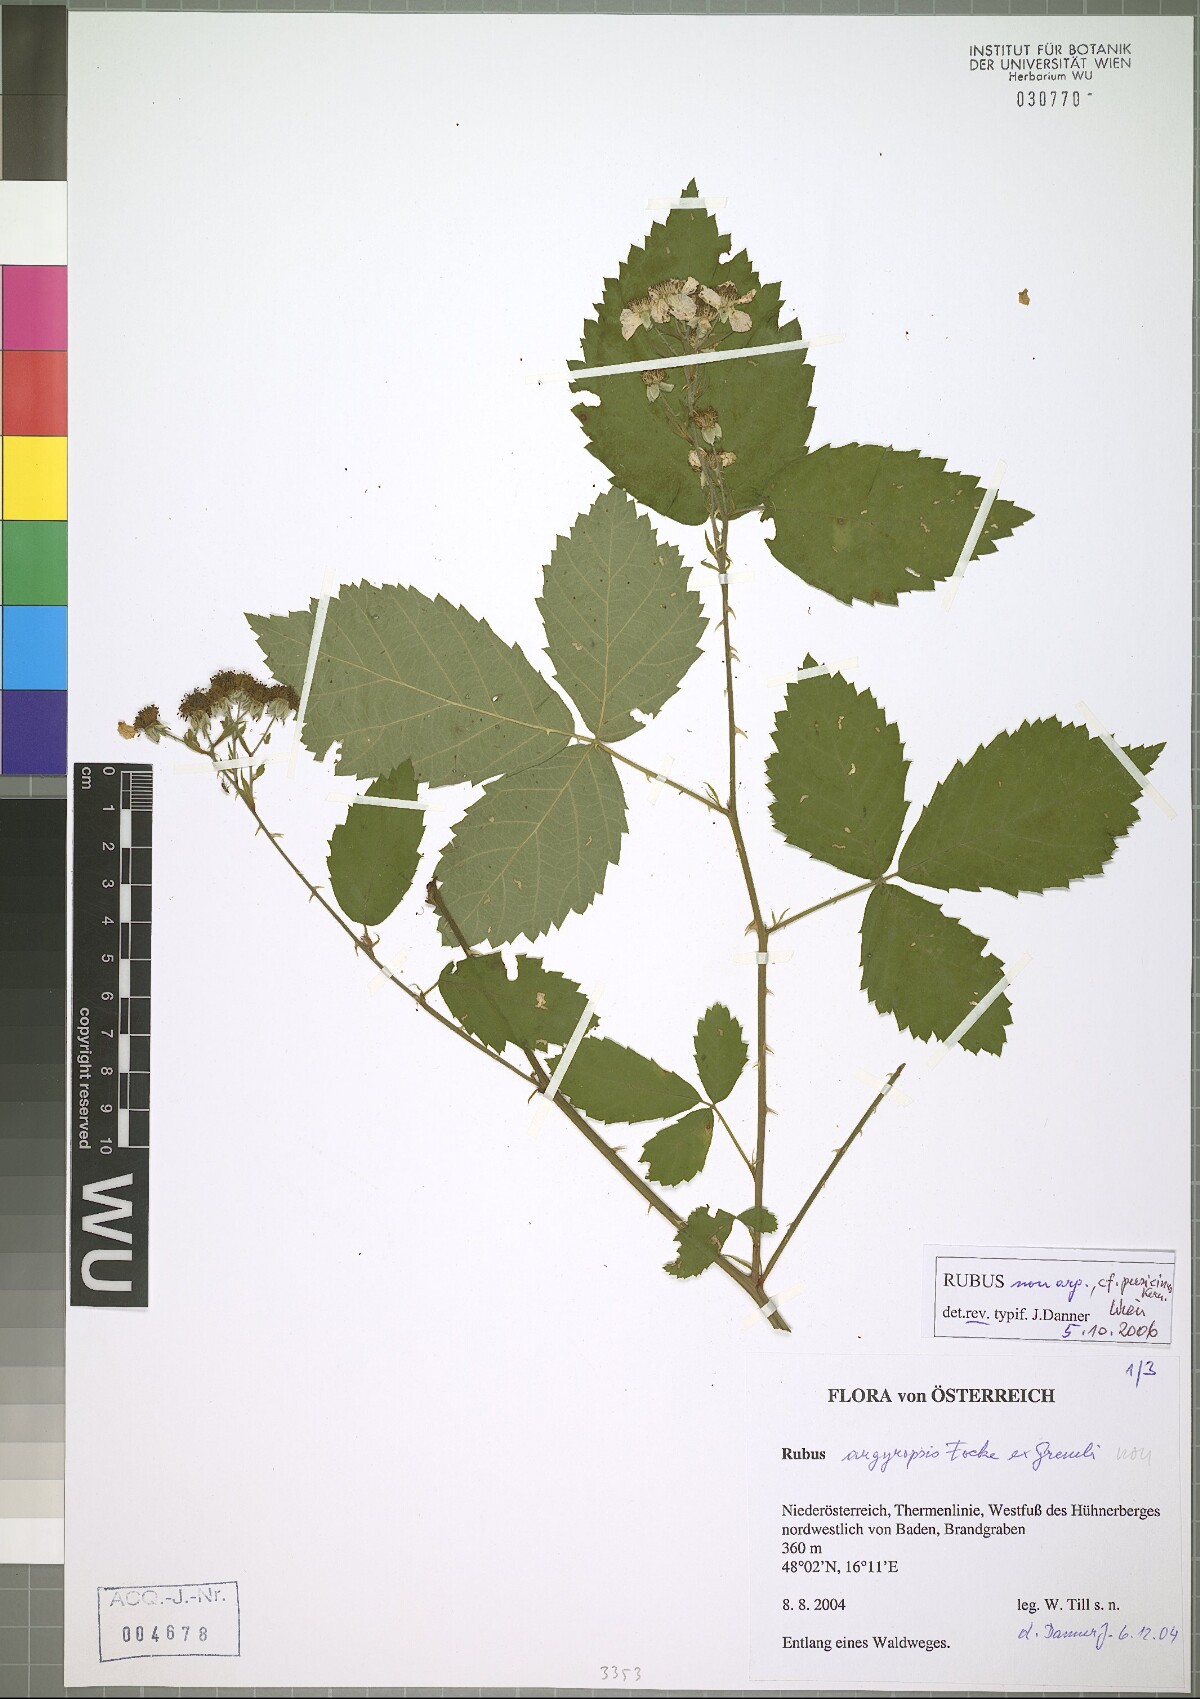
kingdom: Plantae
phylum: Tracheophyta
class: Magnoliopsida
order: Rosales
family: Rosaceae
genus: Rubus
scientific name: Rubus persicinus
